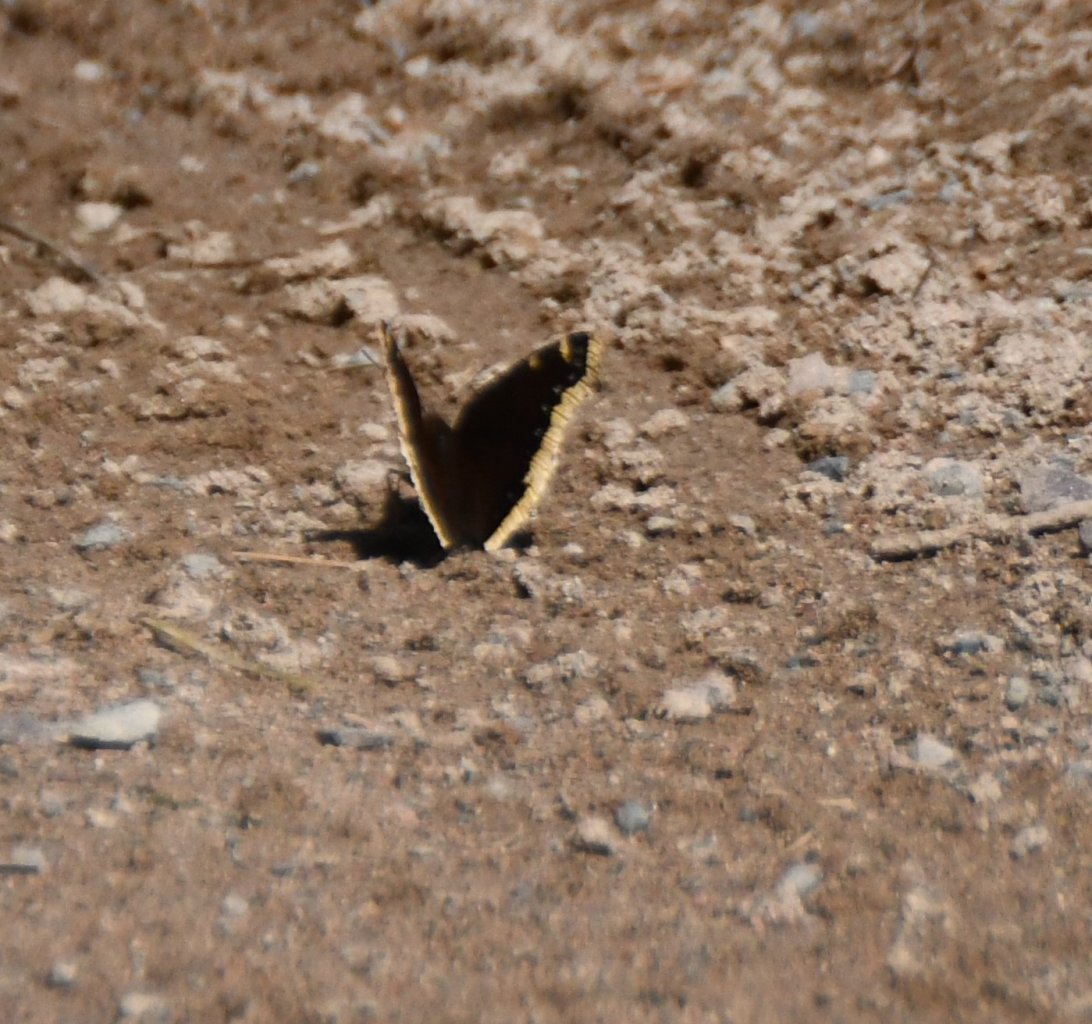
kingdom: Animalia
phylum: Arthropoda
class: Insecta
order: Lepidoptera
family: Nymphalidae
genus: Nymphalis
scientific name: Nymphalis antiopa
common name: Mourning Cloak
